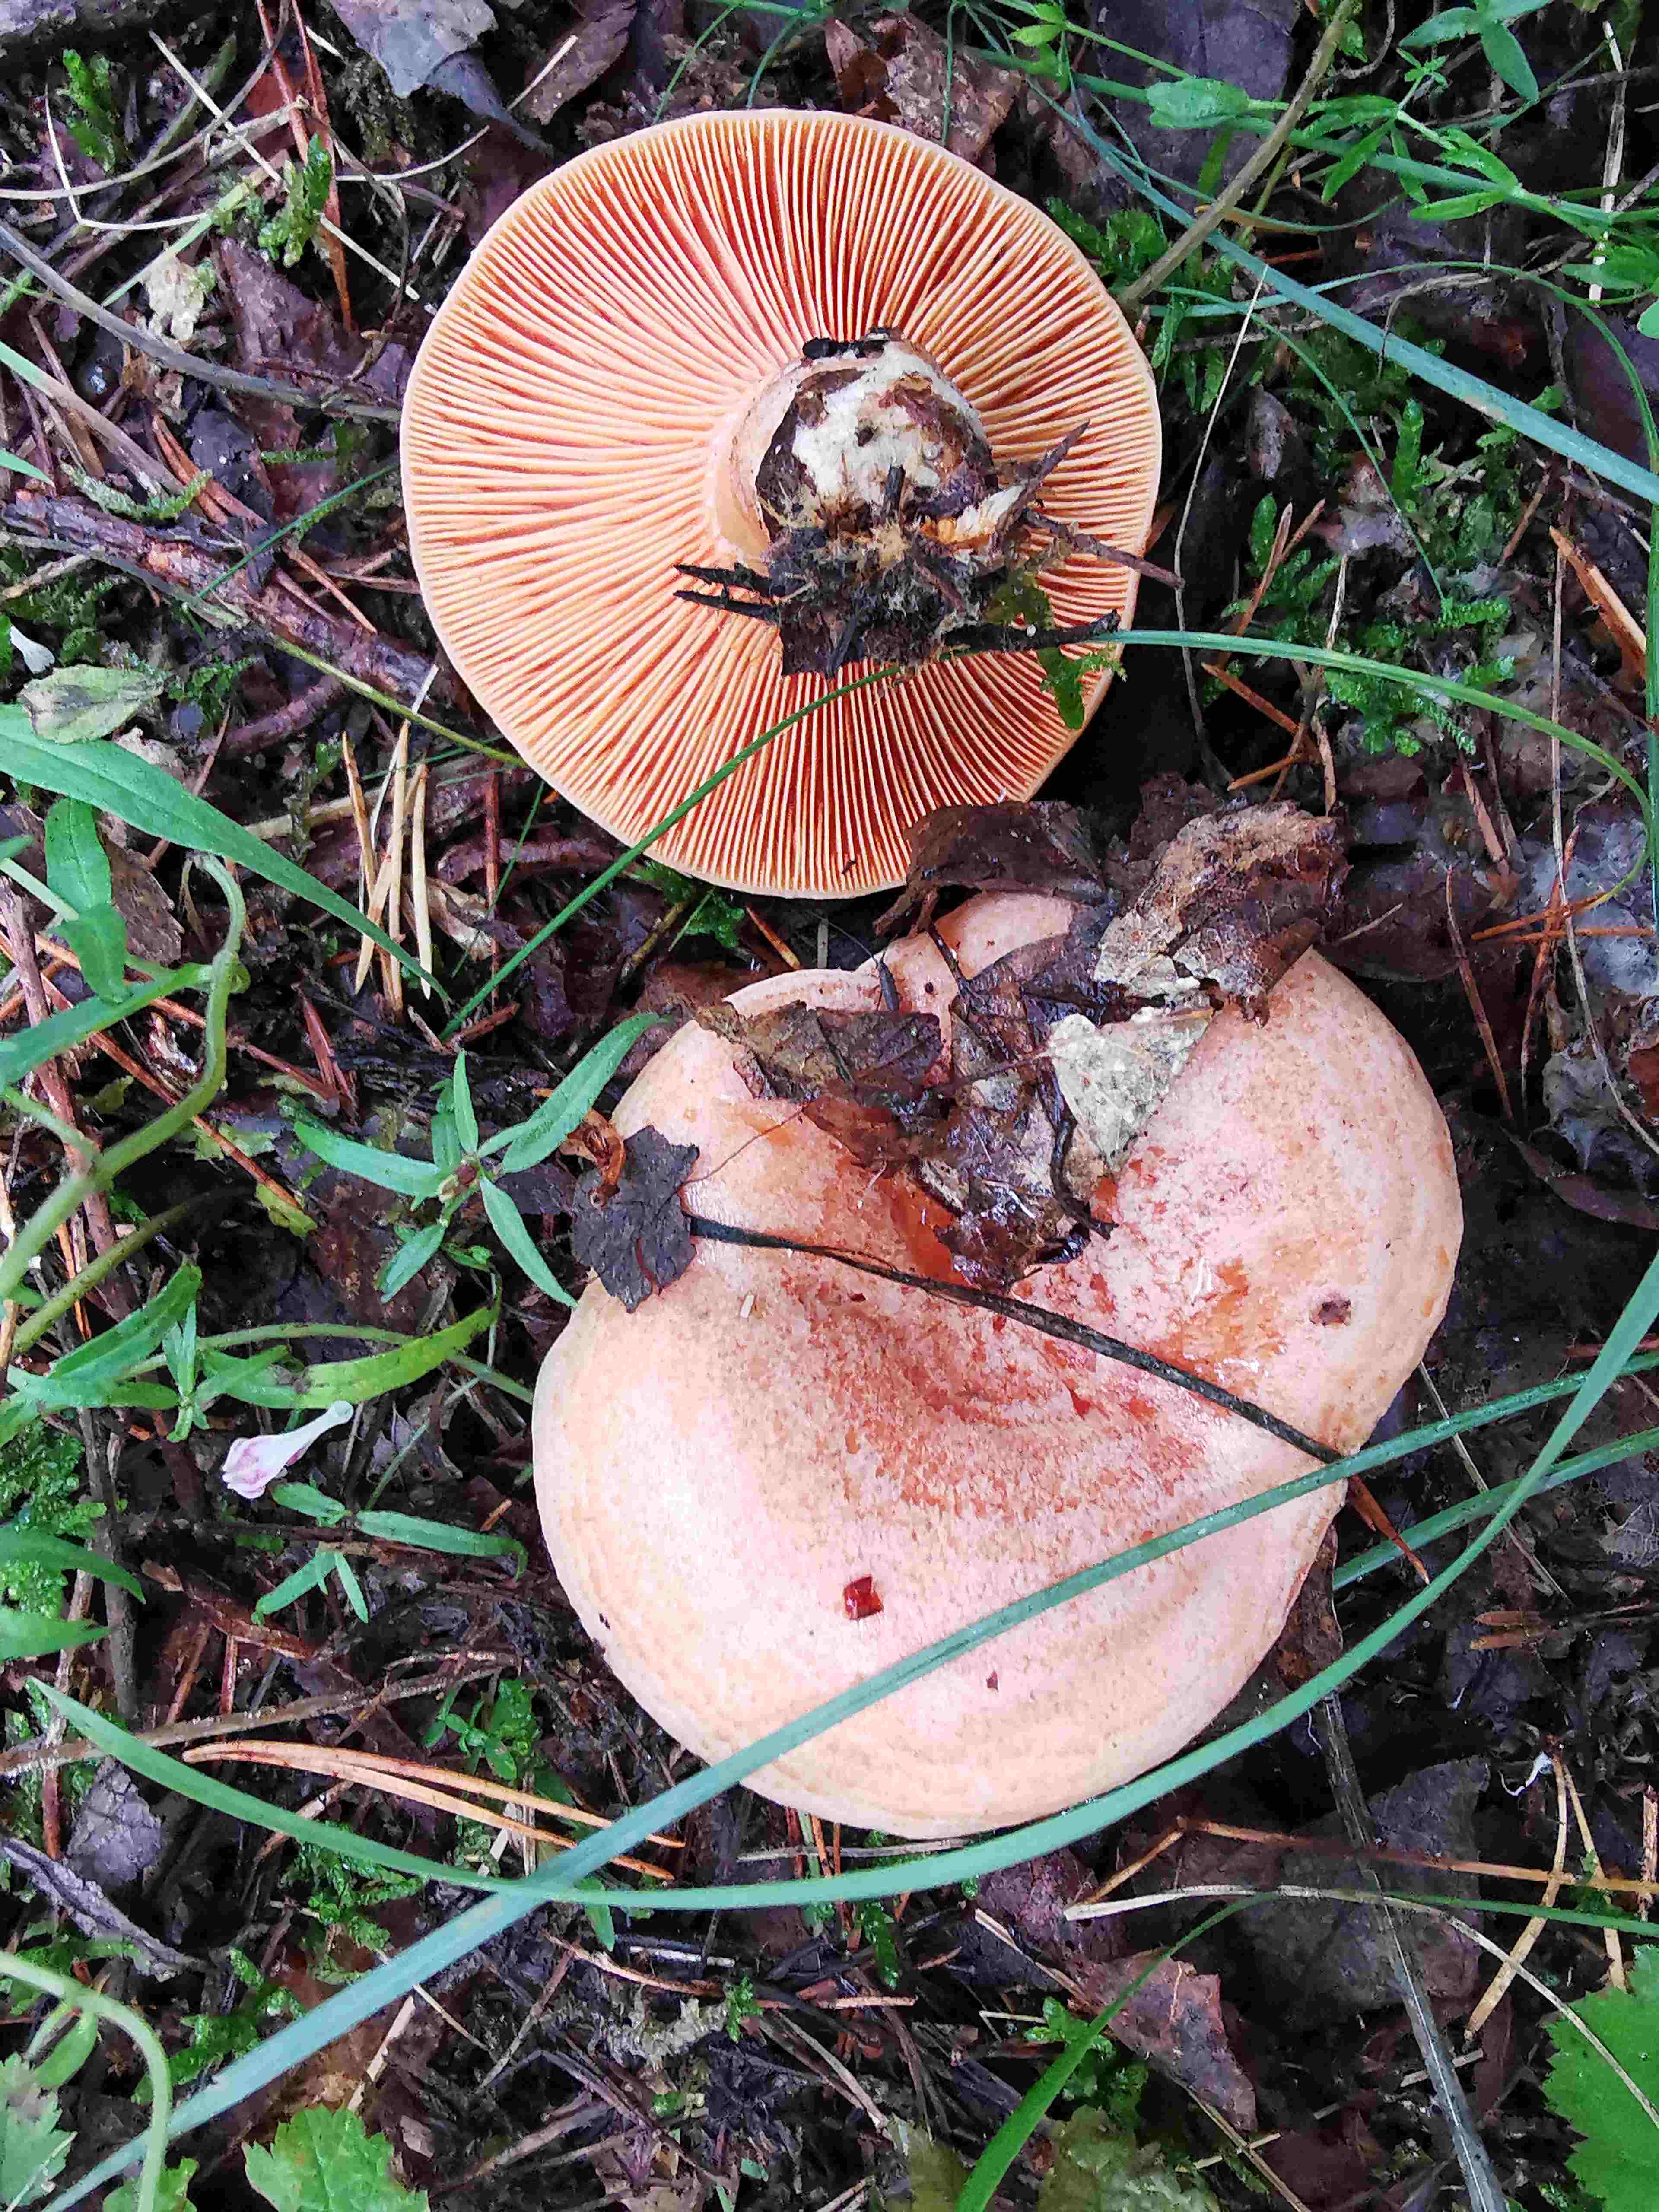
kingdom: Fungi
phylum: Basidiomycota
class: Agaricomycetes
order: Russulales
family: Russulaceae
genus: Lactarius
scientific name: Lactarius deliciosus
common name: velsmagende mælkehat
